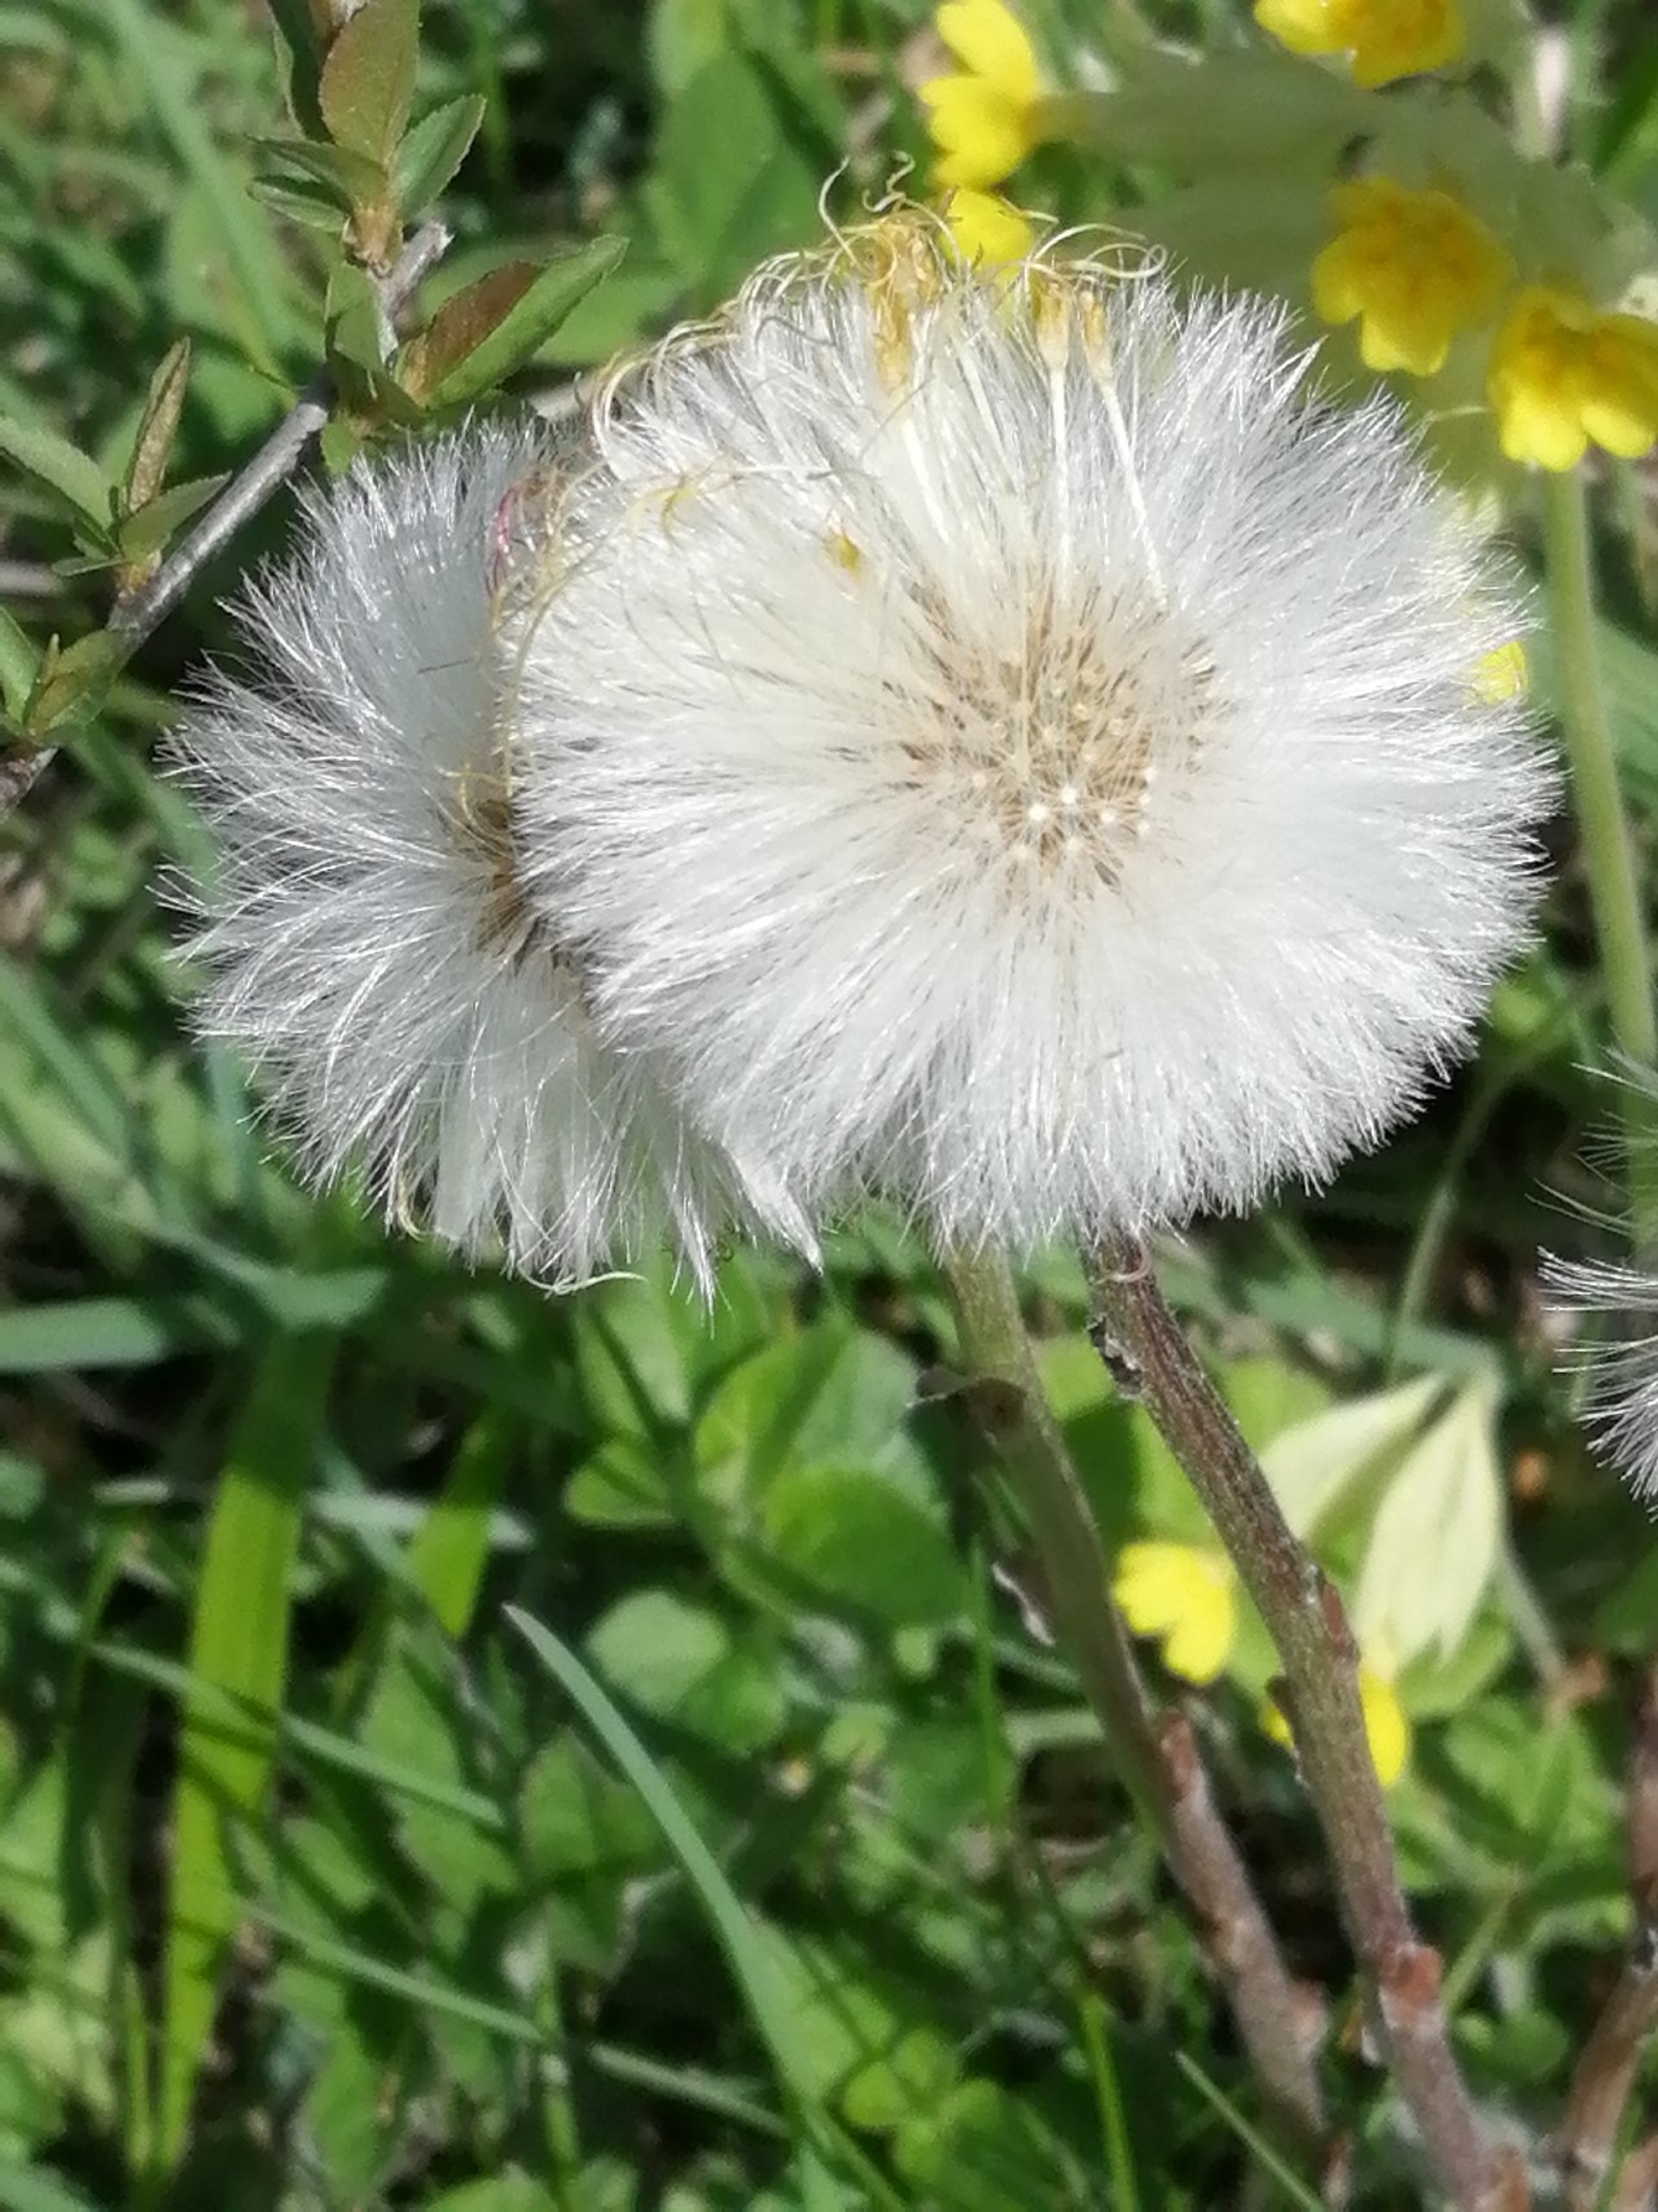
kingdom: Plantae
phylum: Tracheophyta
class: Magnoliopsida
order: Asterales
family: Asteraceae
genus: Tussilago
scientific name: Tussilago farfara
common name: Følfod
